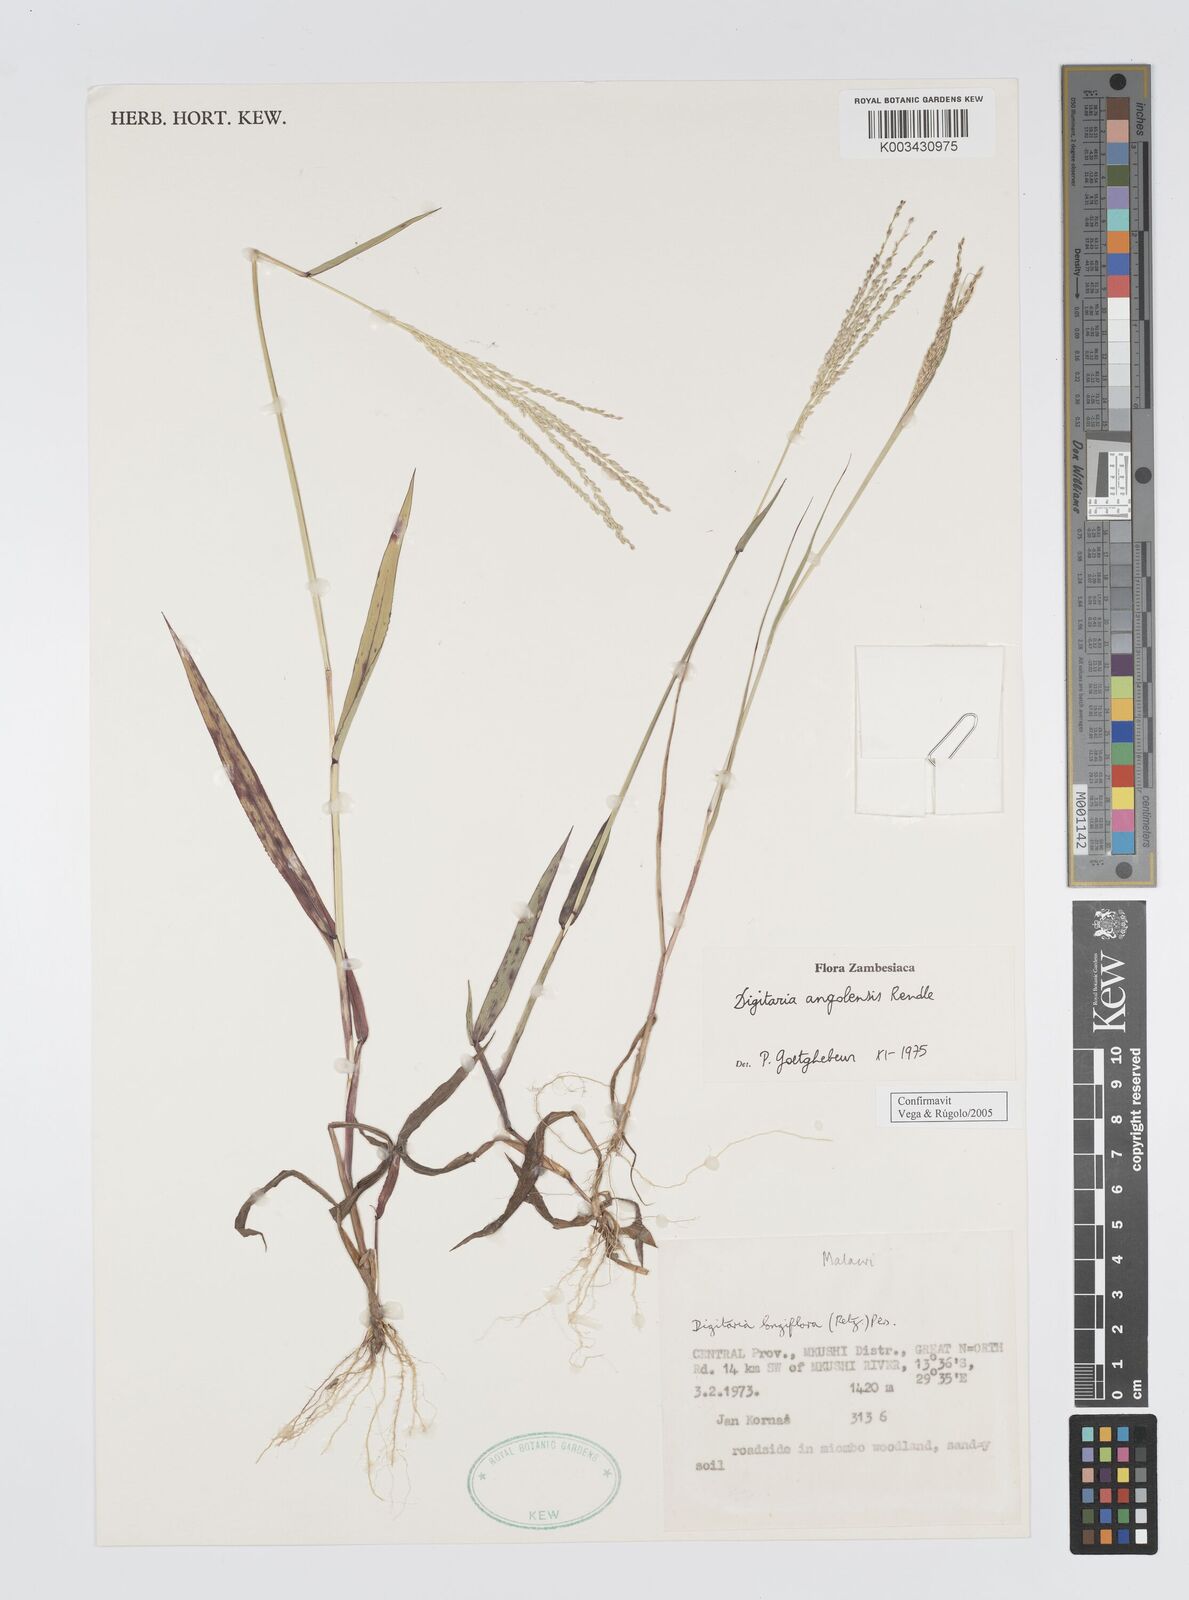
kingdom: Plantae
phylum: Tracheophyta
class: Liliopsida
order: Poales
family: Poaceae
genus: Digitaria
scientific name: Digitaria angolensis
